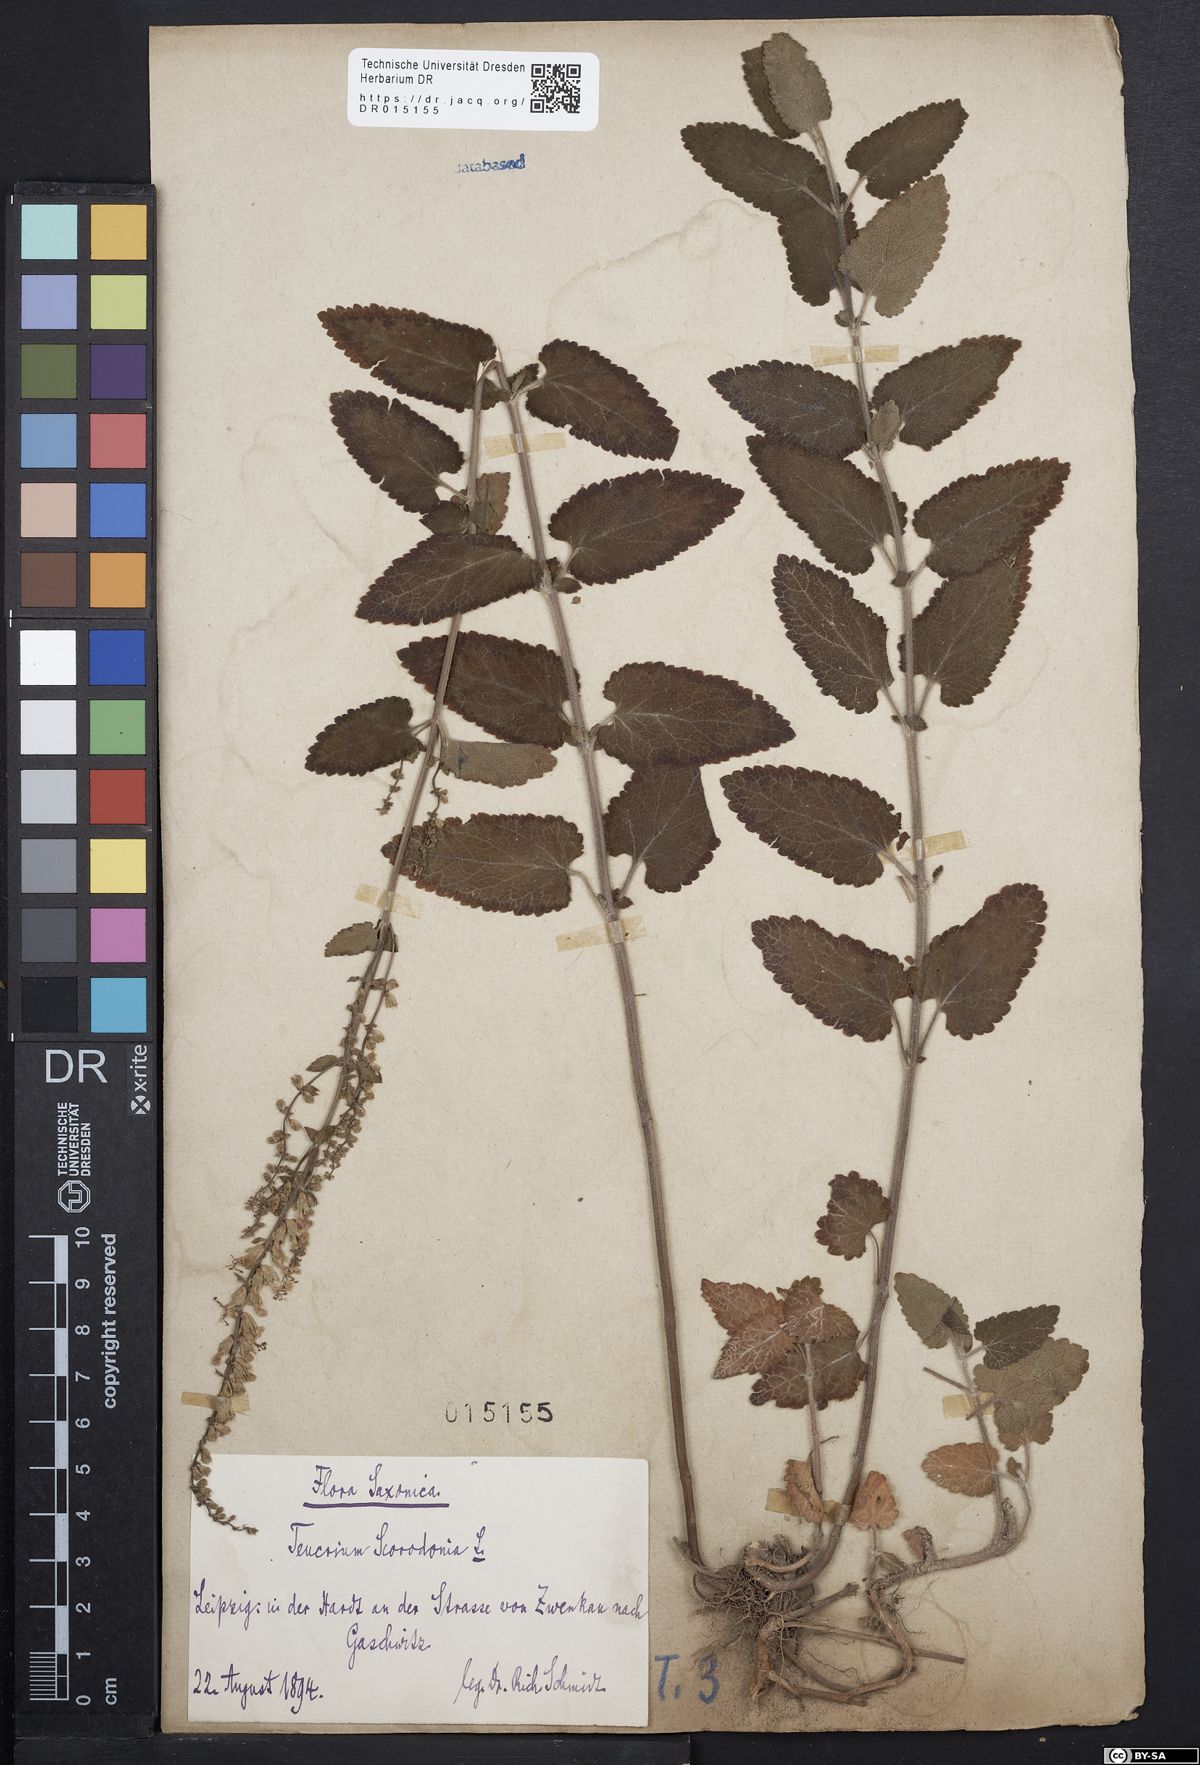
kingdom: Plantae
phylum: Tracheophyta
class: Magnoliopsida
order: Lamiales
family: Lamiaceae
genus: Teucrium
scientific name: Teucrium scorodonia
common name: Woodland germander
